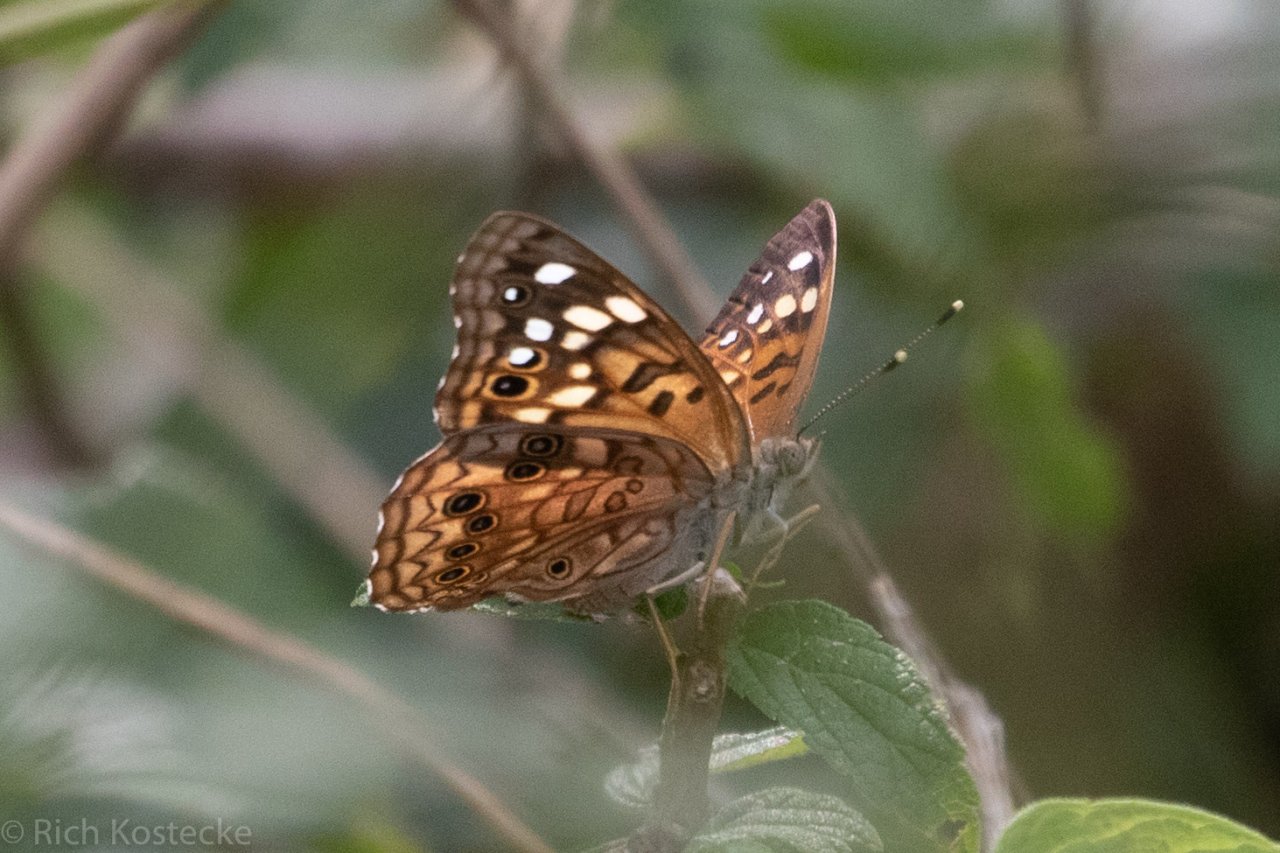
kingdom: Animalia
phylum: Arthropoda
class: Insecta
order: Lepidoptera
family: Nymphalidae
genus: Asterocampa
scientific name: Asterocampa celtis
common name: Hackberry Emperor
